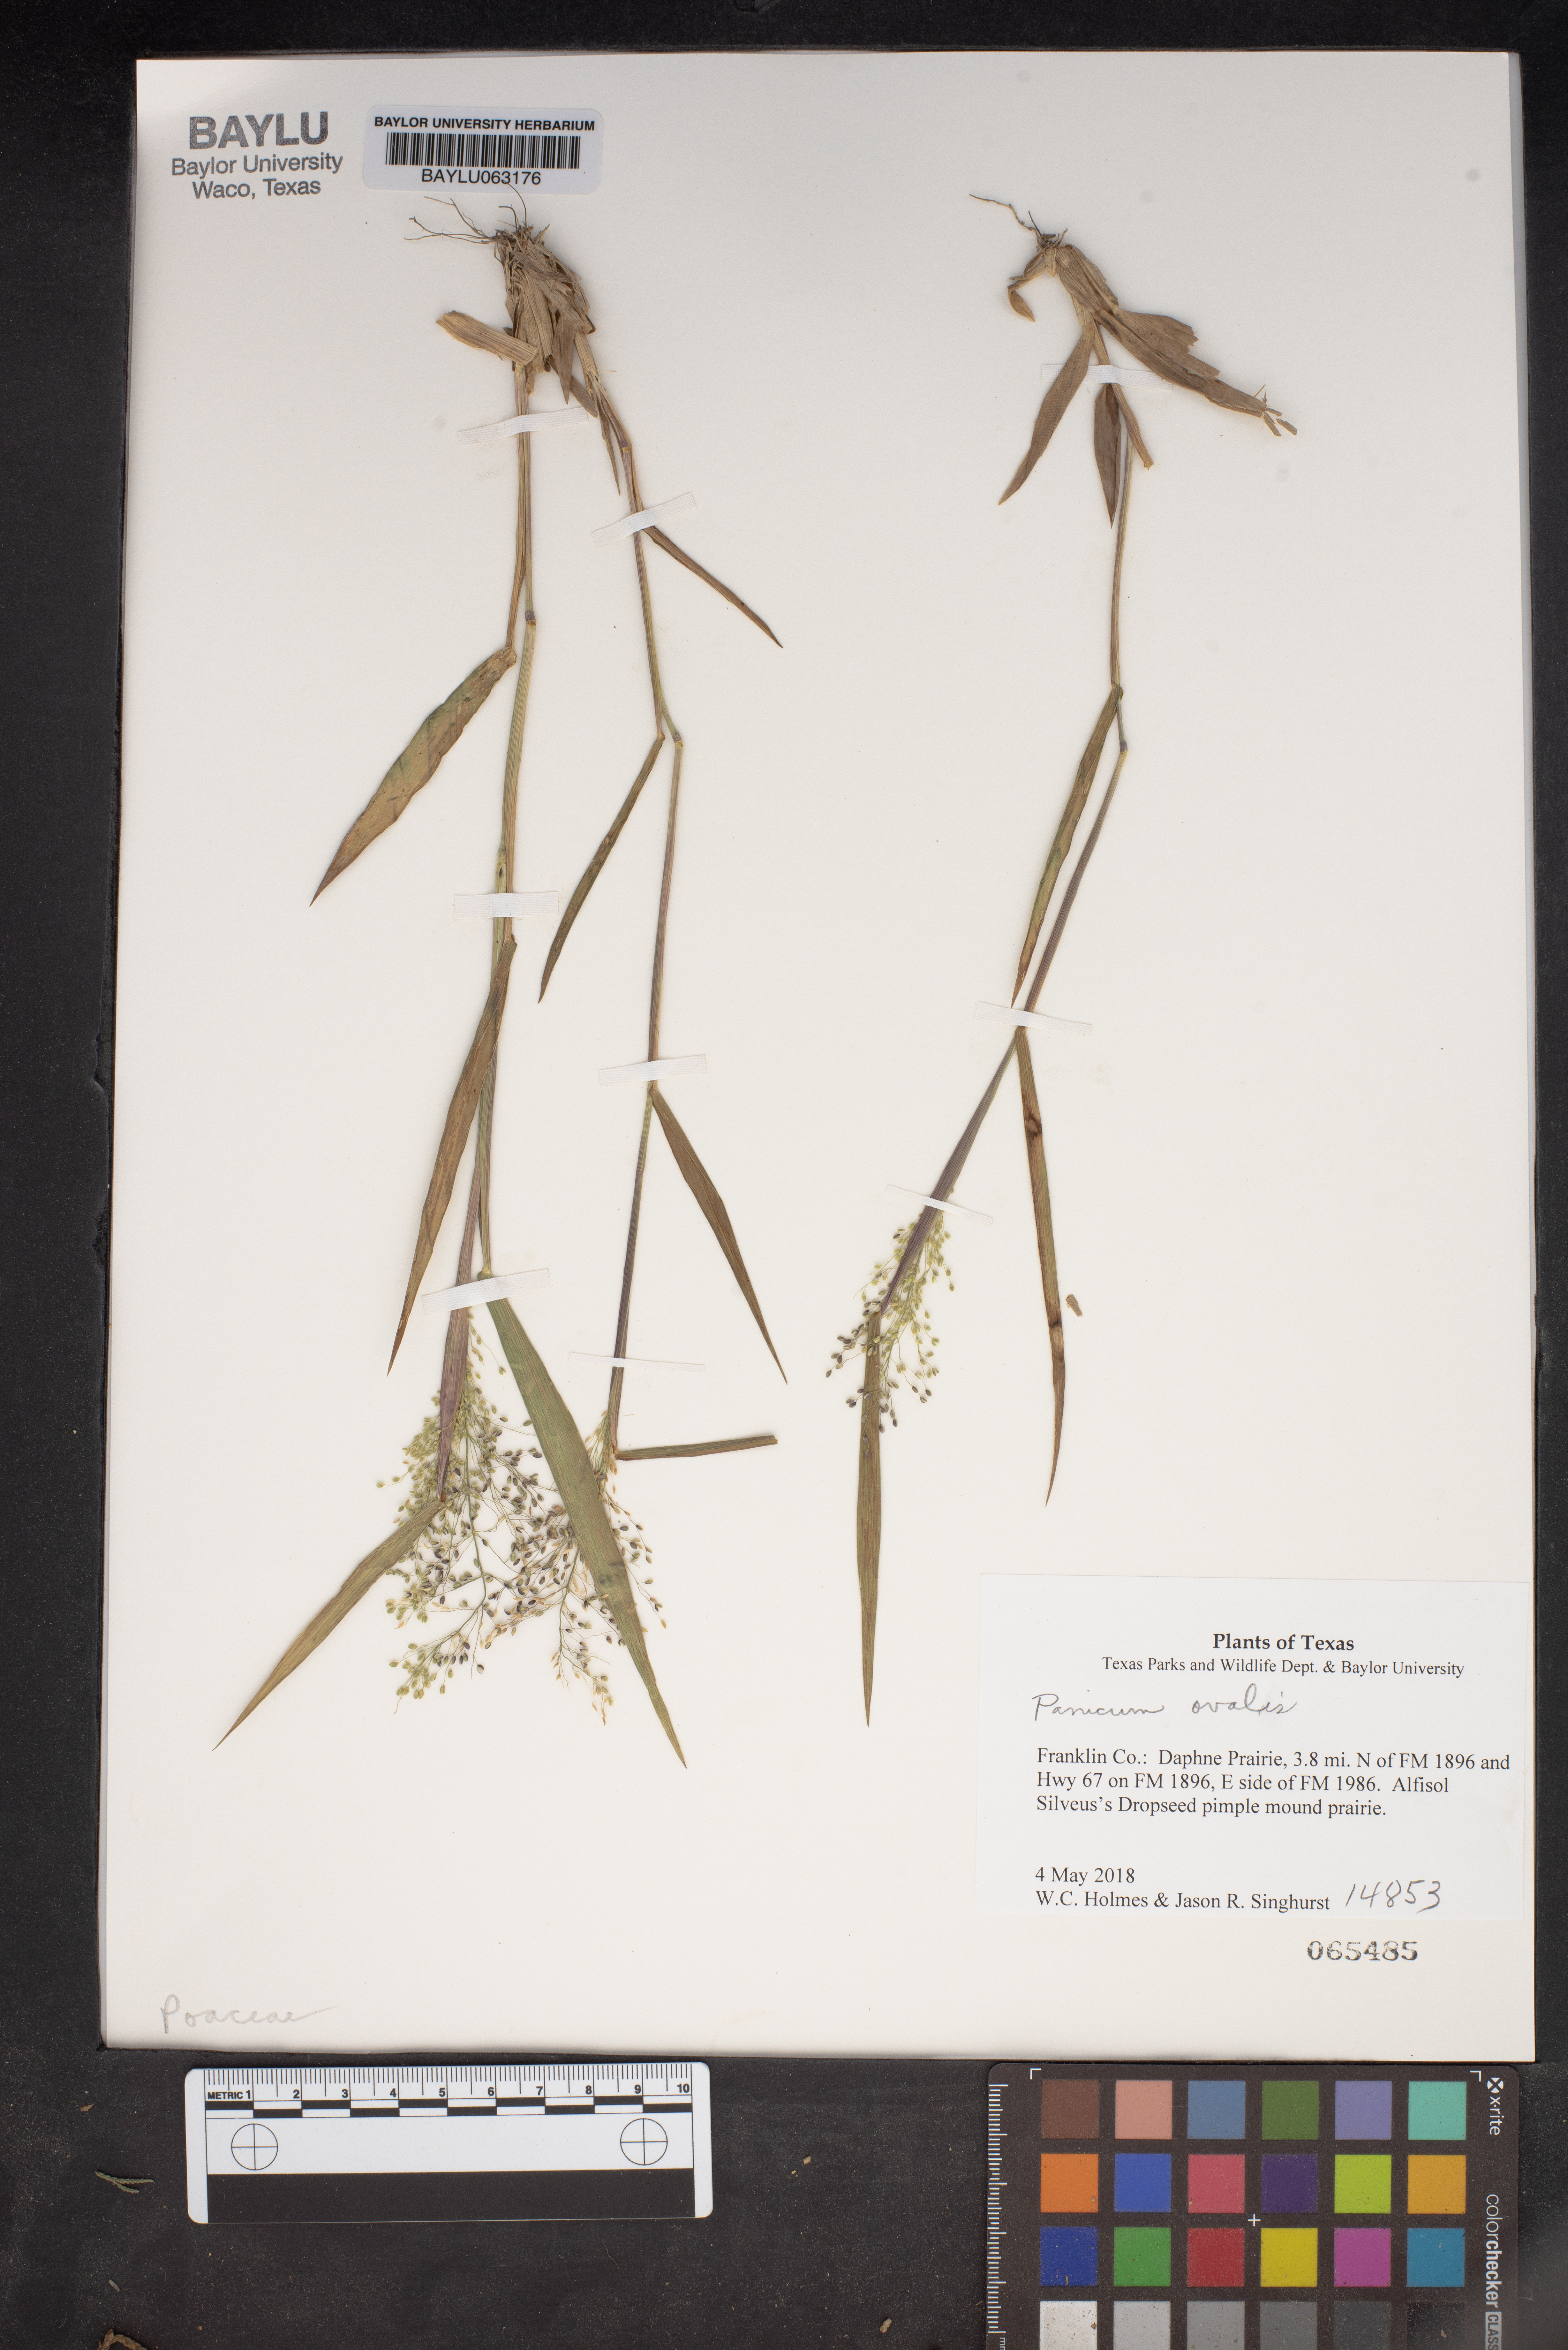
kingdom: Plantae
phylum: Tracheophyta
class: Liliopsida
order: Poales
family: Poaceae
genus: Dichanthelium
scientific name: Dichanthelium ovale
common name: Stiff-leaved panicgrass
